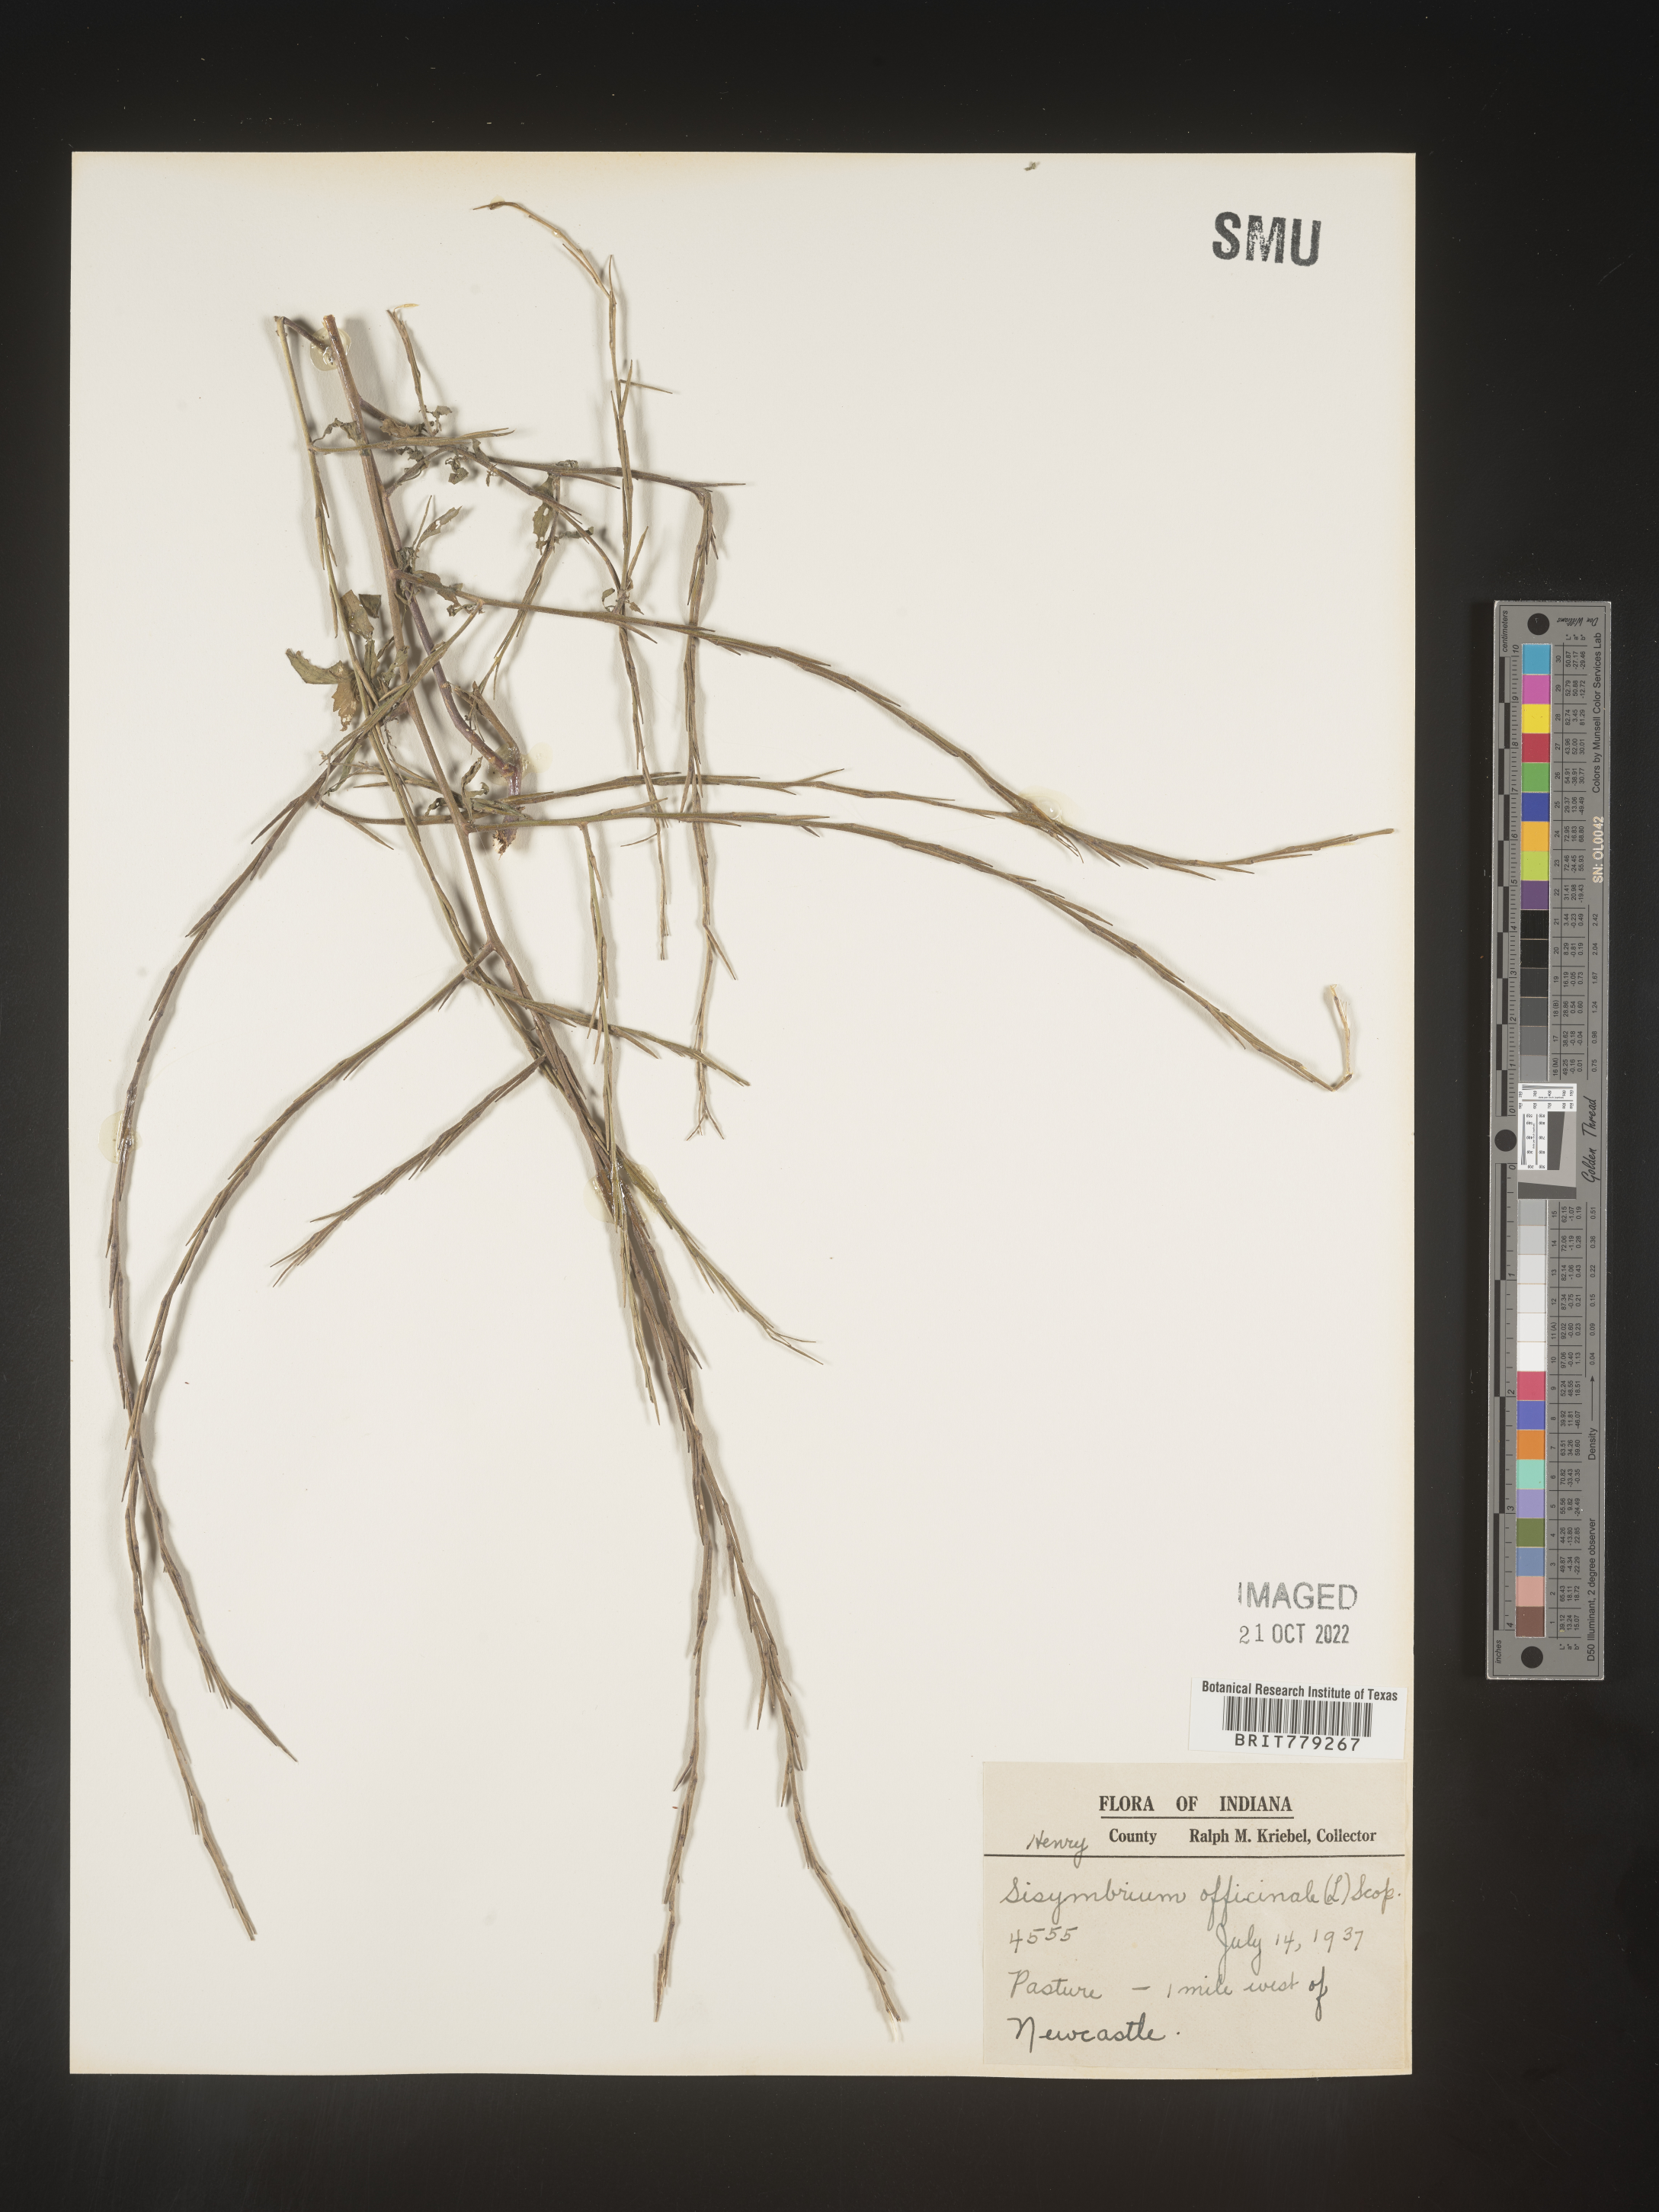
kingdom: Plantae
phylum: Tracheophyta
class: Magnoliopsida
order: Brassicales
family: Brassicaceae
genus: Sisymbrium
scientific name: Sisymbrium officinale
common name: Hedge mustard
